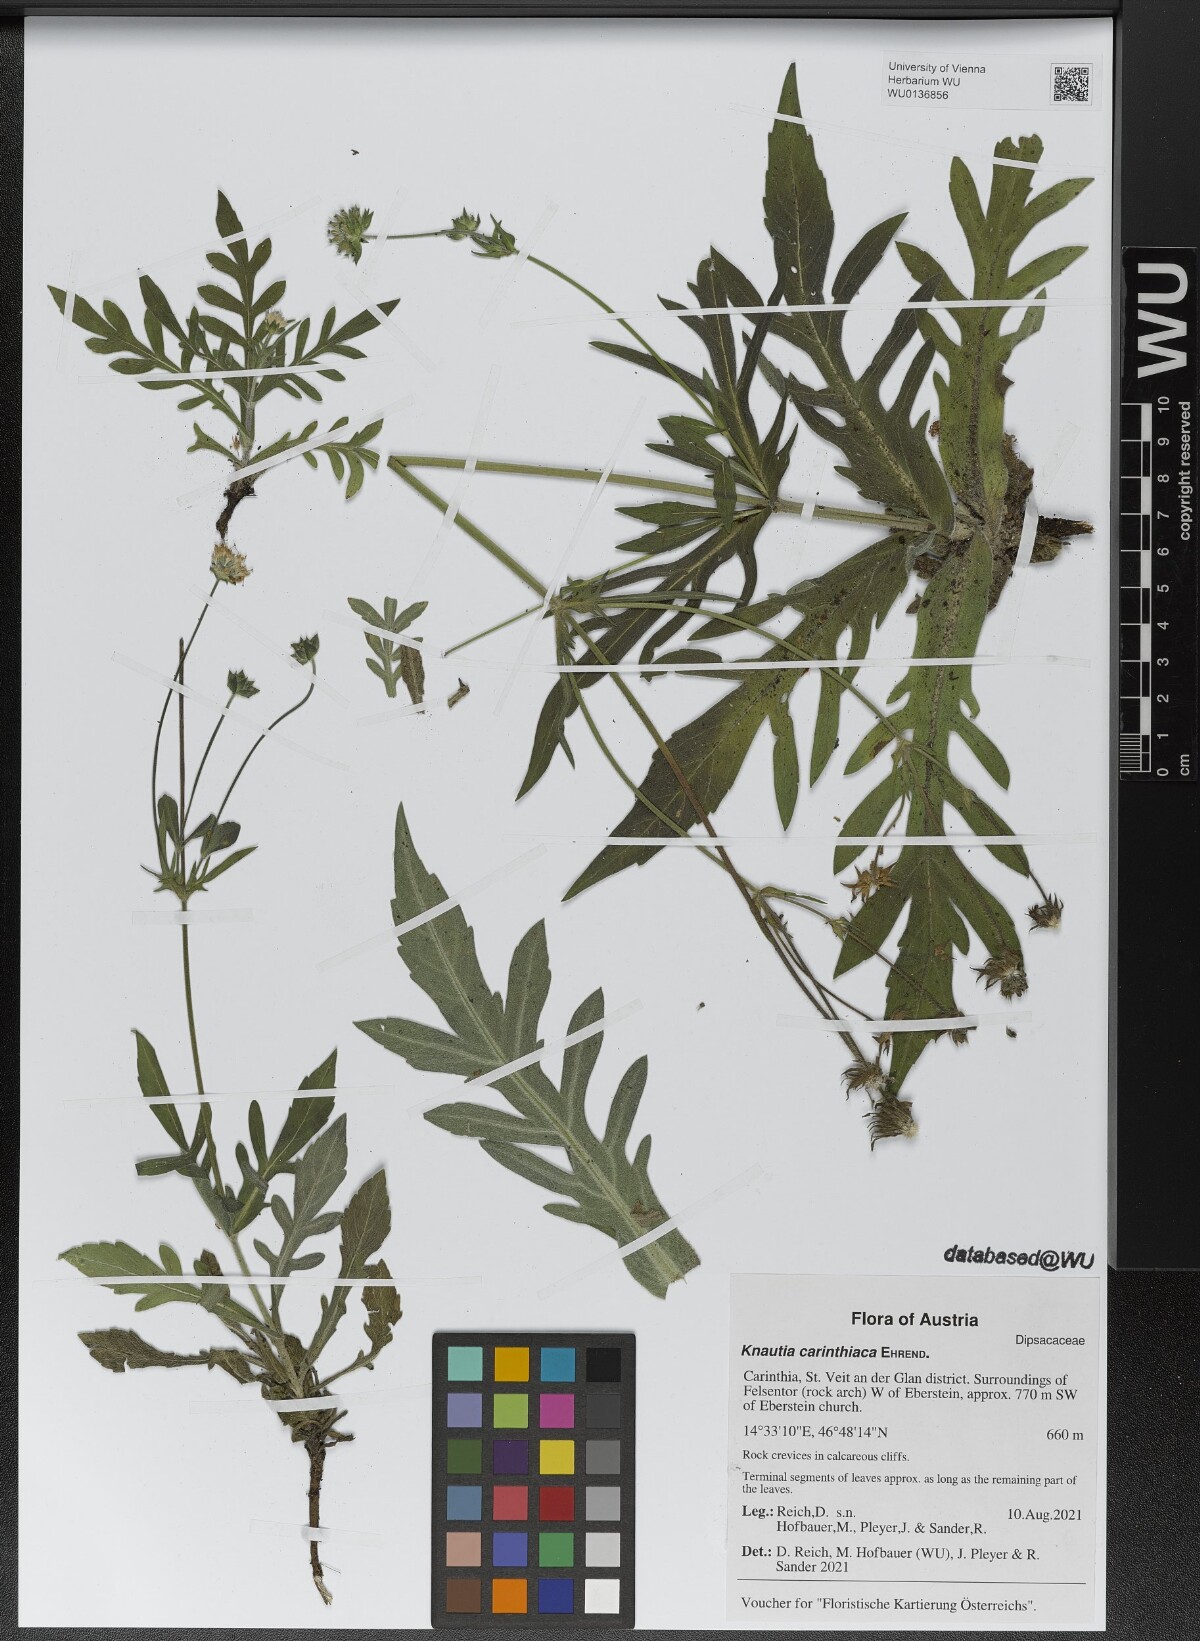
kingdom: Plantae
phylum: Tracheophyta
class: Magnoliopsida
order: Dipsacales
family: Caprifoliaceae
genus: Knautia
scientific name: Knautia carinthiaca
